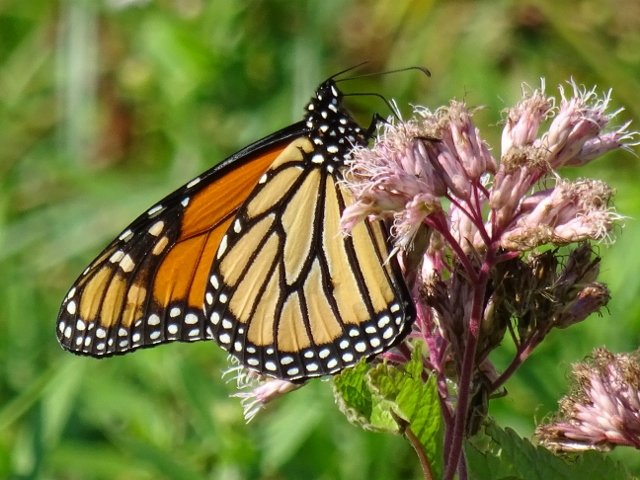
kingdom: Animalia
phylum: Arthropoda
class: Insecta
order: Lepidoptera
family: Nymphalidae
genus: Danaus
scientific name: Danaus plexippus
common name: Monarch
